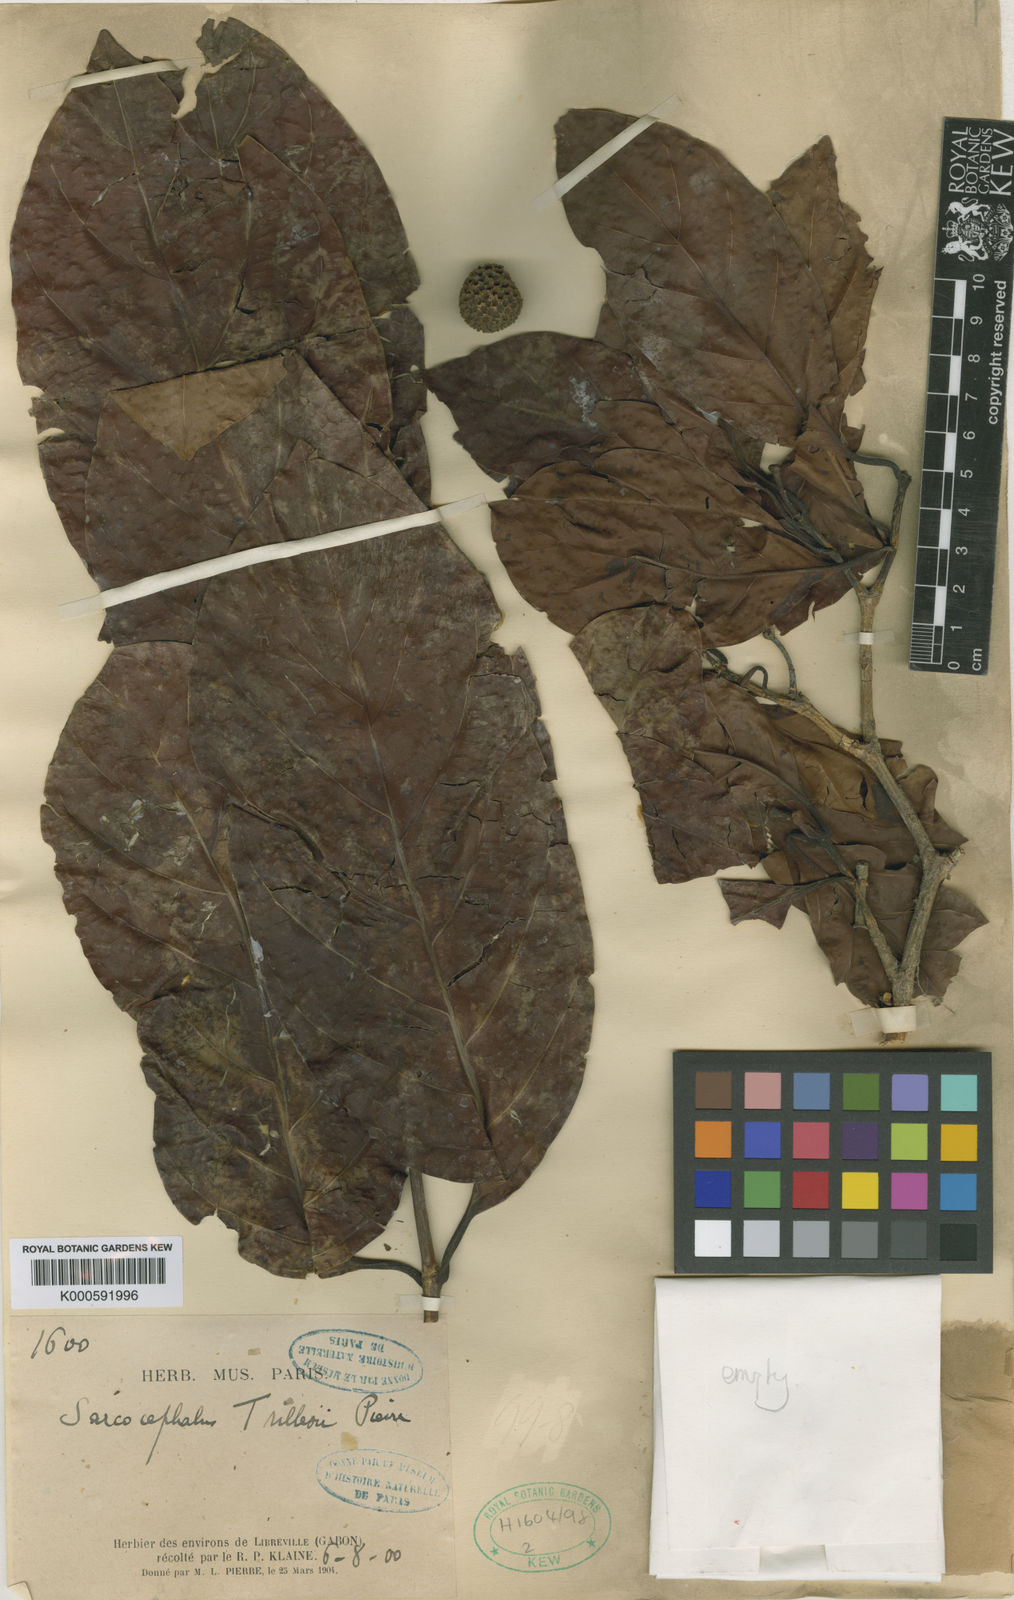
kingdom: Plantae
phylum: Tracheophyta
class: Magnoliopsida
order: Gentianales
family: Rubiaceae
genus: Nauclea
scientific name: Nauclea diderrichii
